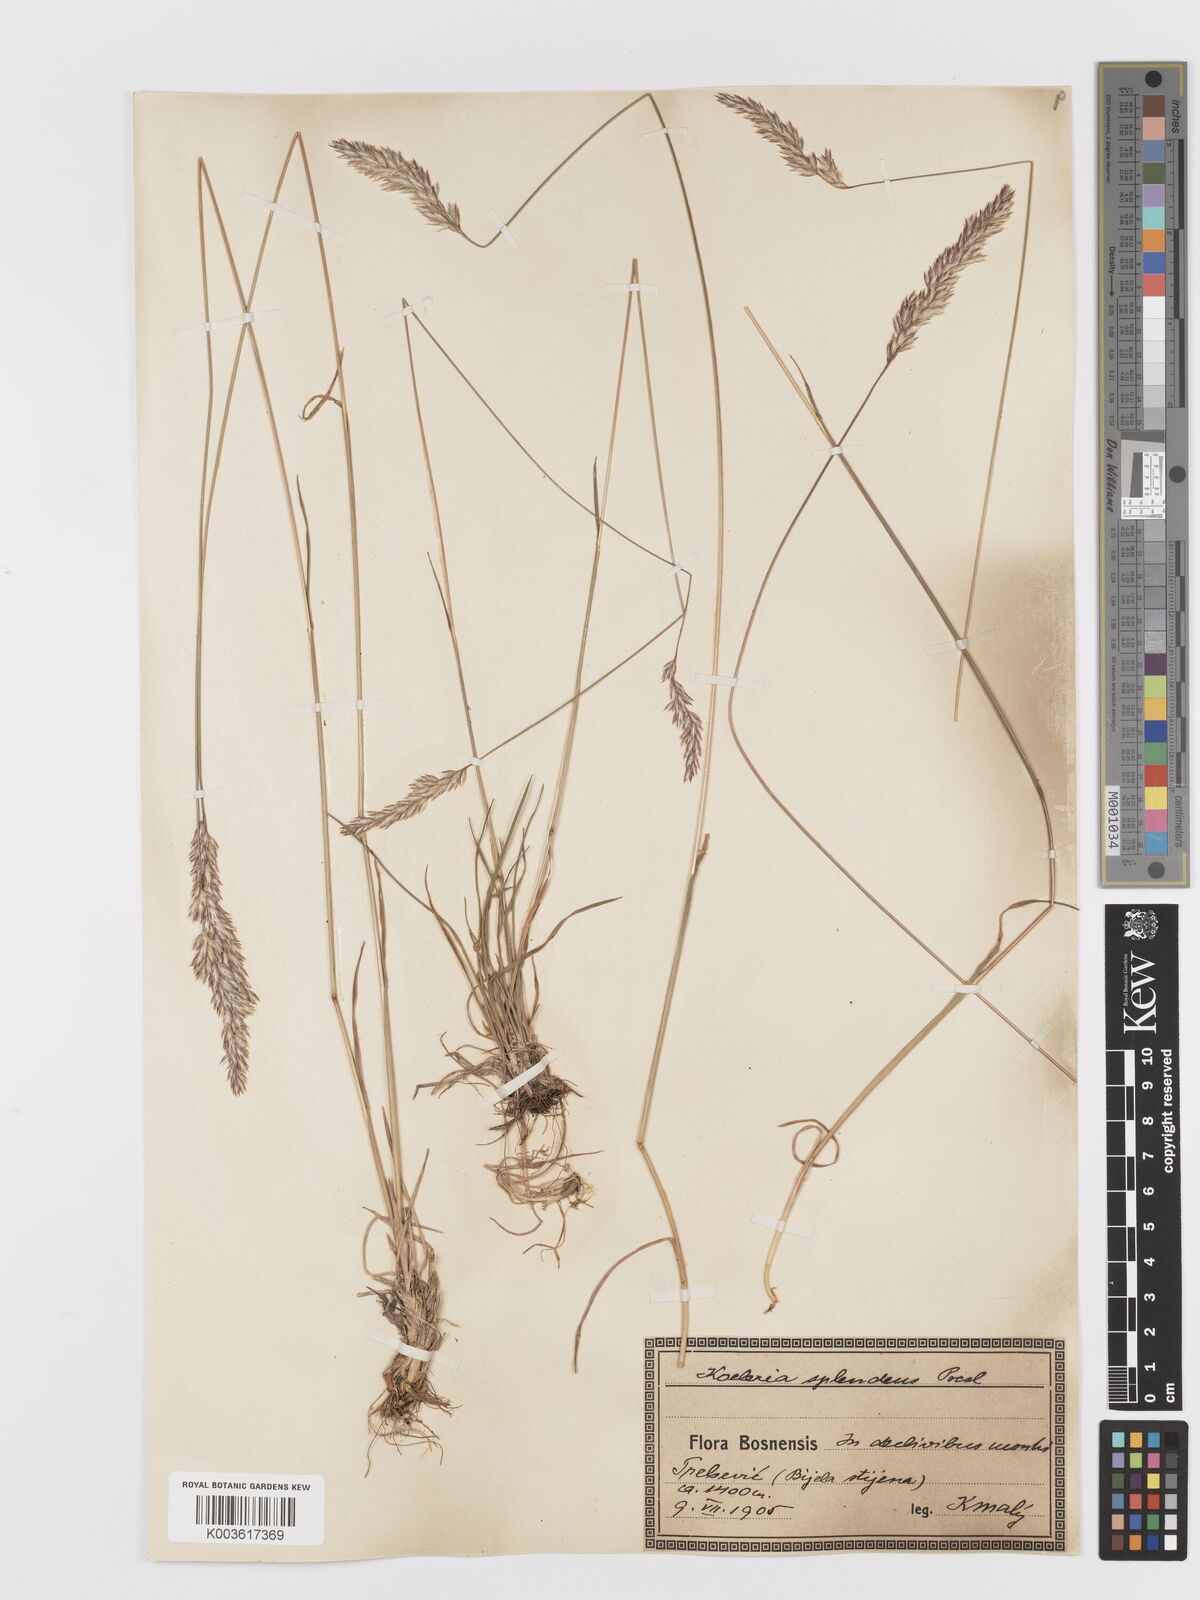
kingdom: Plantae
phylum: Tracheophyta
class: Liliopsida
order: Poales
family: Poaceae
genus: Koeleria
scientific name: Koeleria
